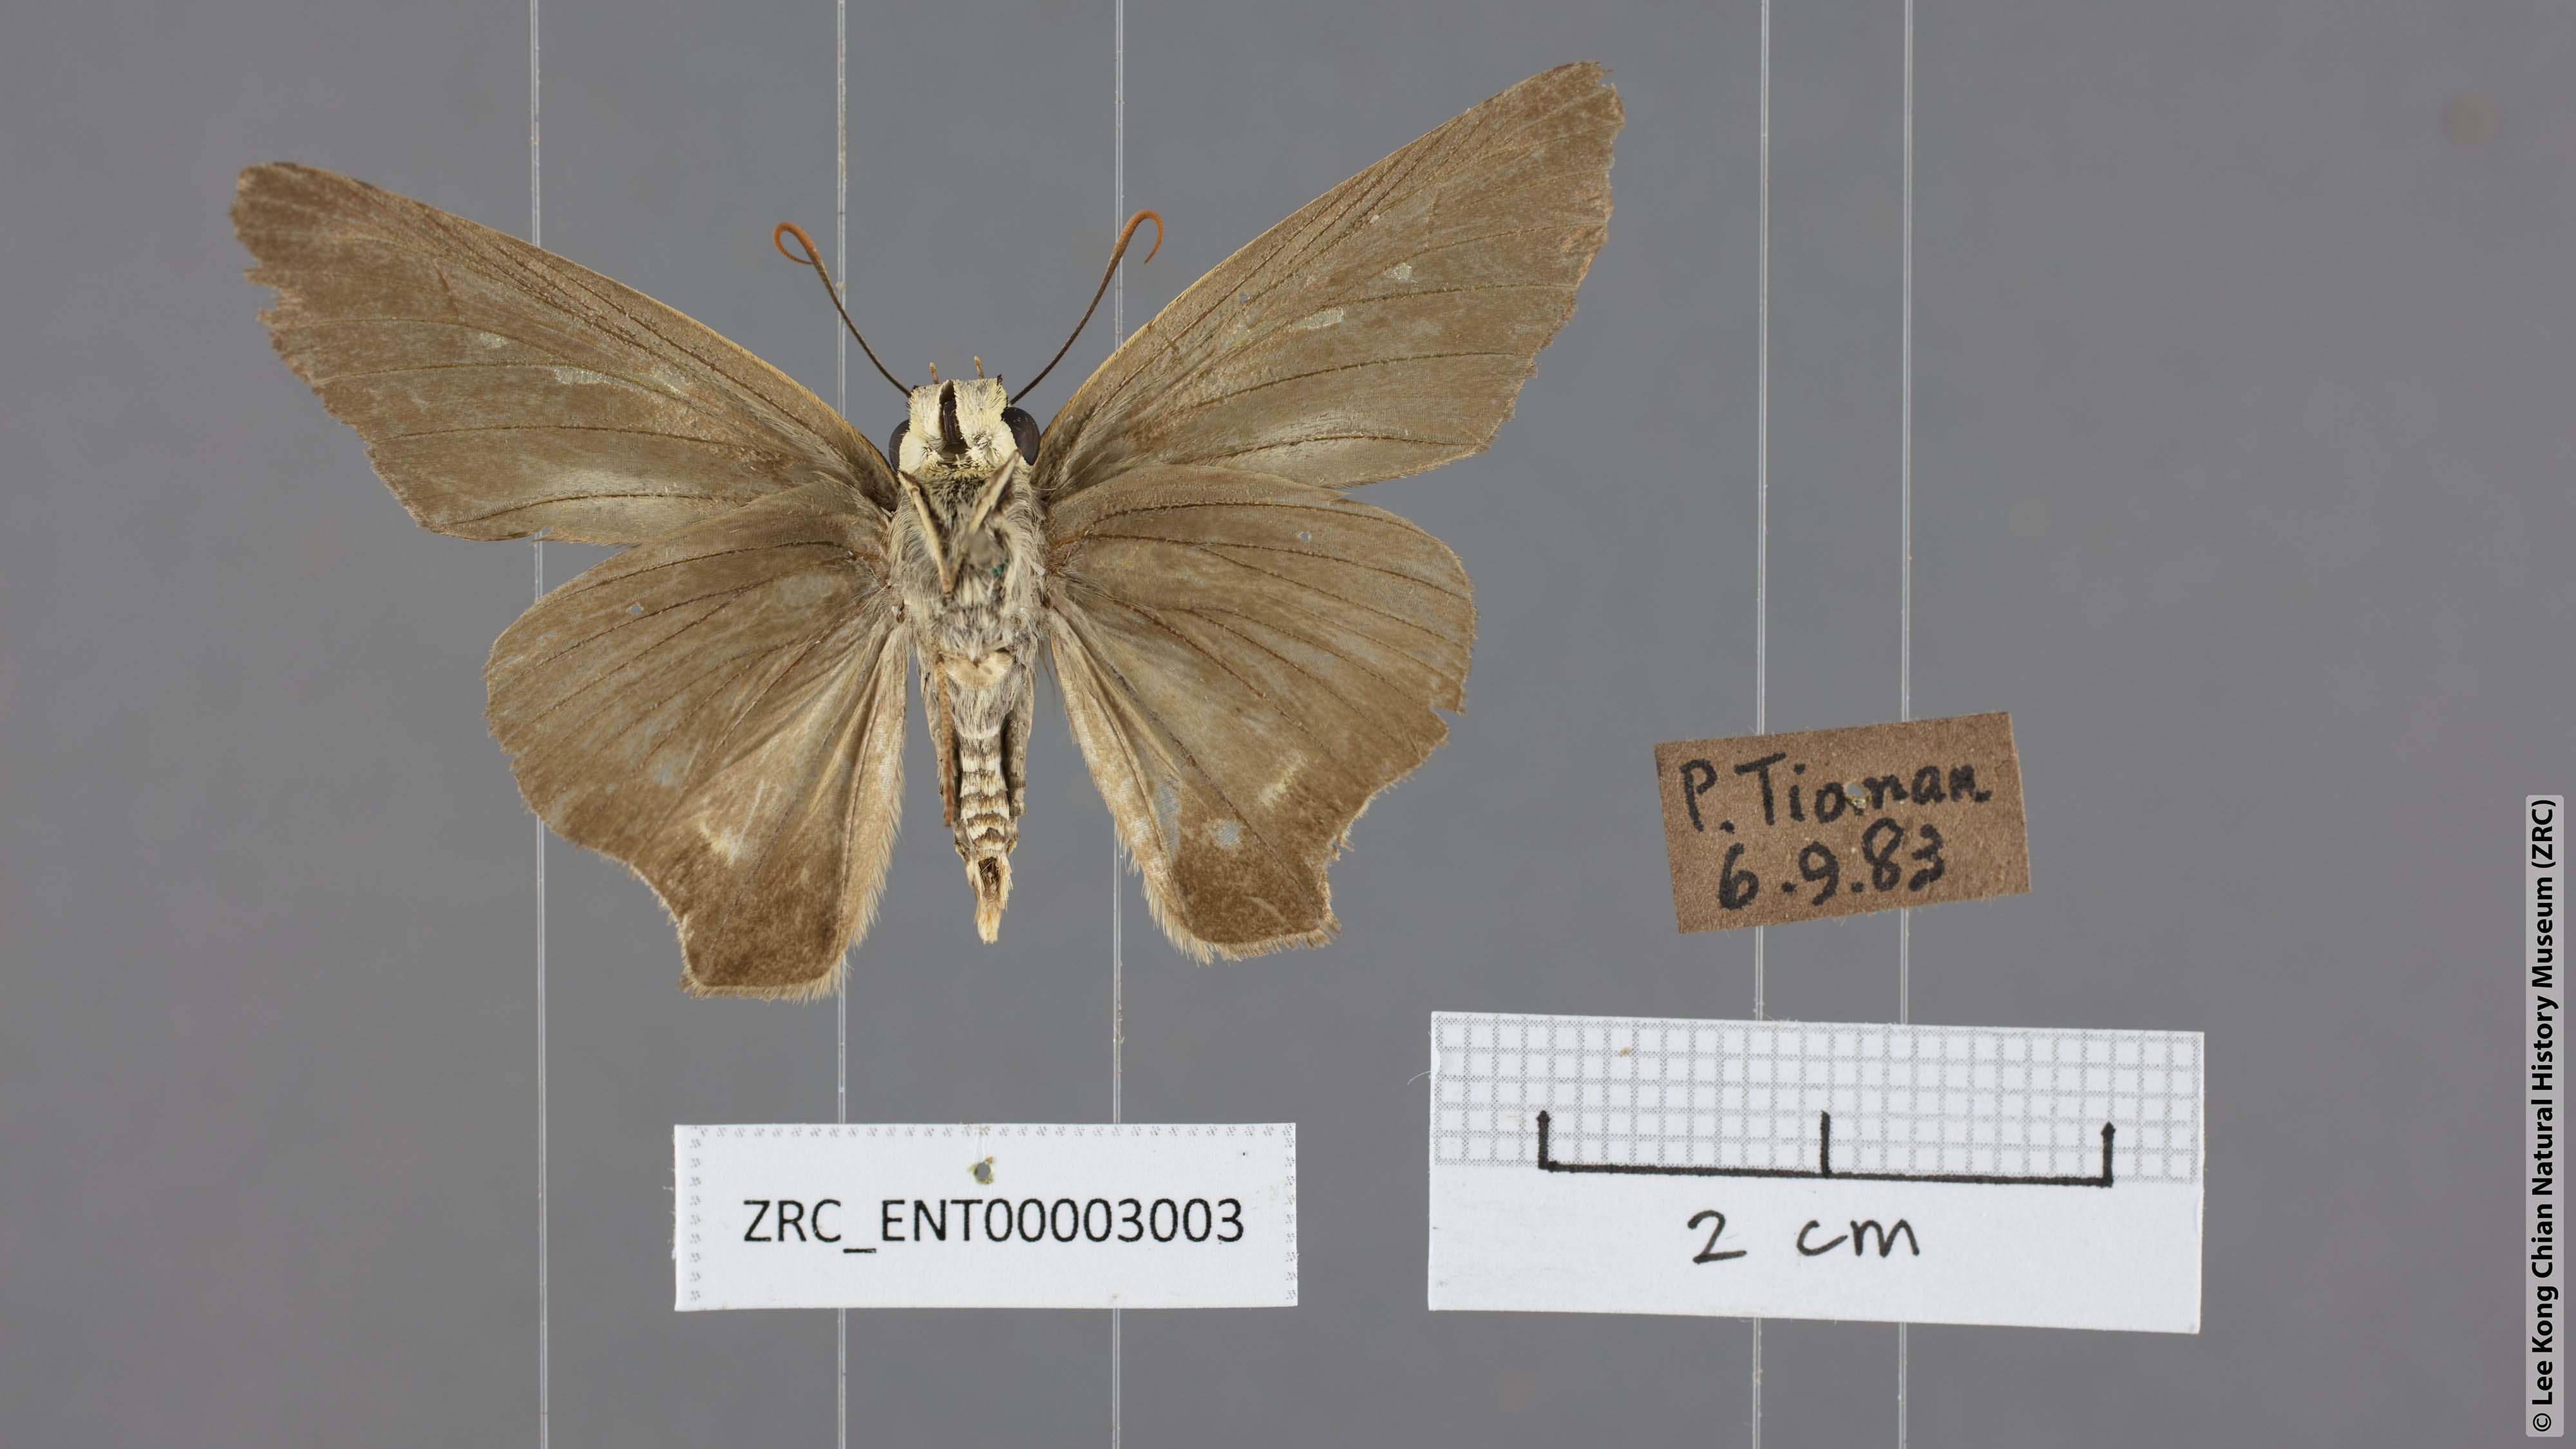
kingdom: Animalia
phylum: Arthropoda
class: Insecta
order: Lepidoptera
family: Hesperiidae
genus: Badamia
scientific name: Badamia exclamationis
